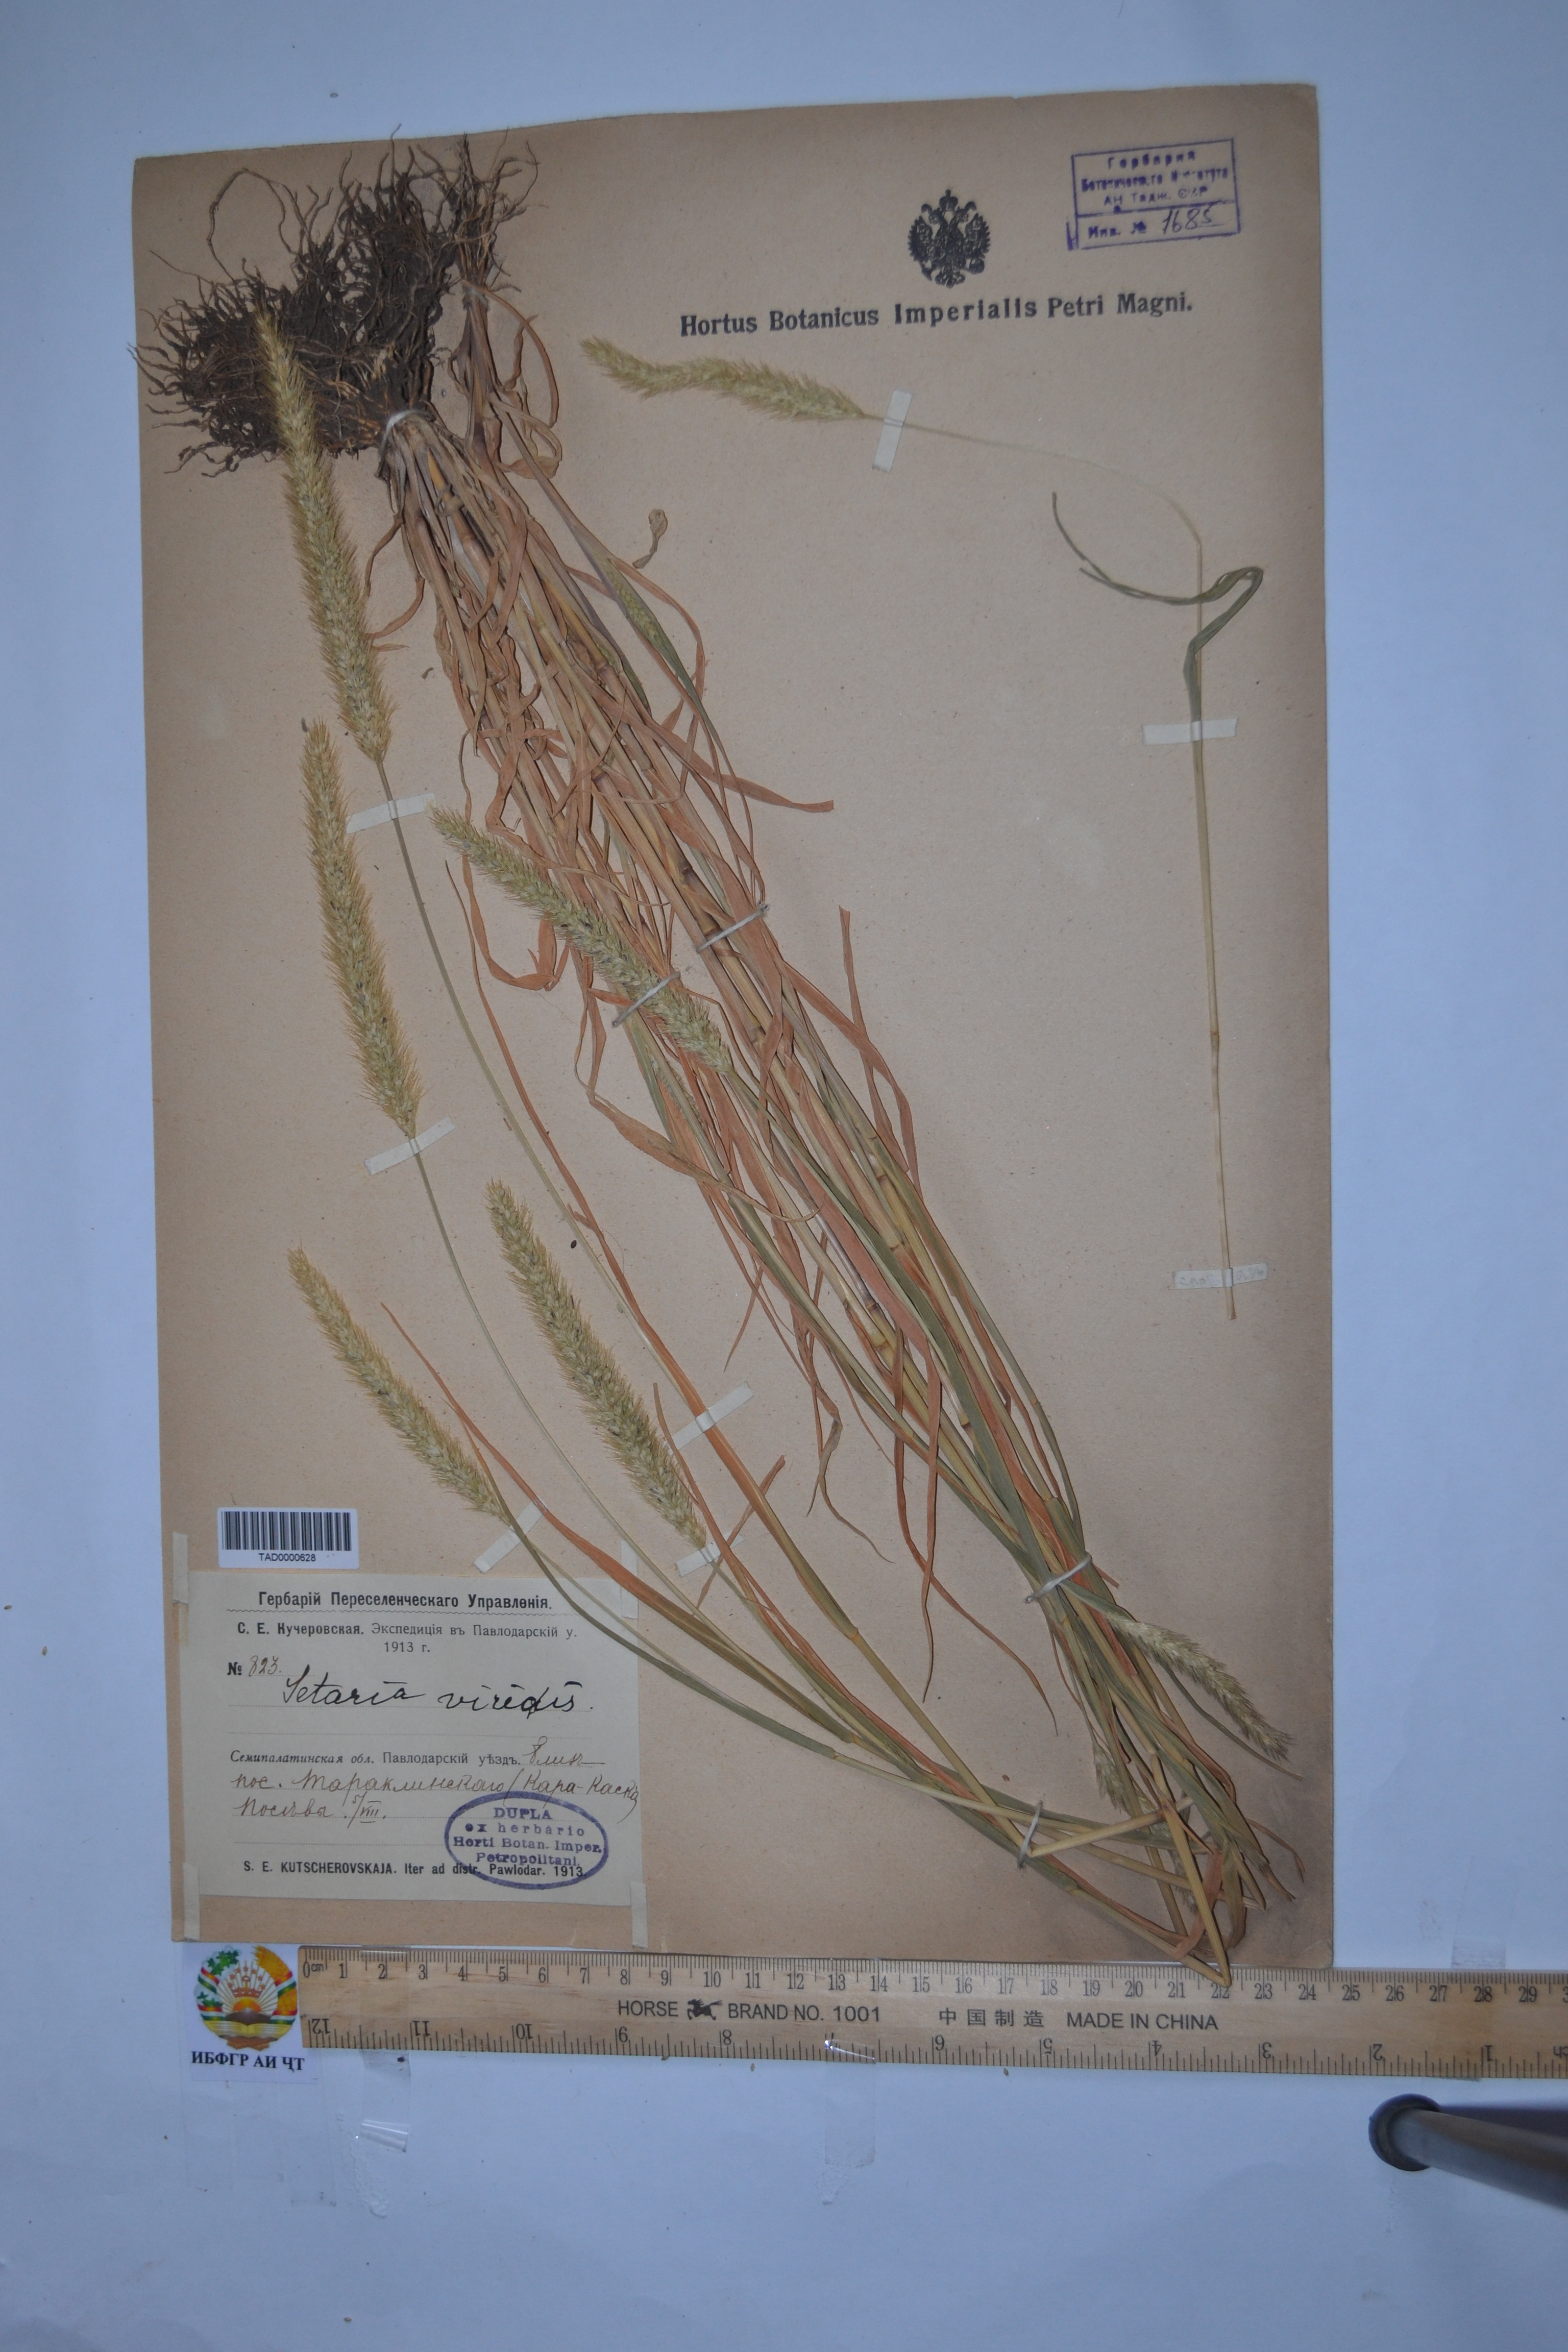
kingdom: Plantae
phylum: Tracheophyta
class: Liliopsida
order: Poales
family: Poaceae
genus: Setaria
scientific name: Setaria viridis
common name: Green bristlegrass
